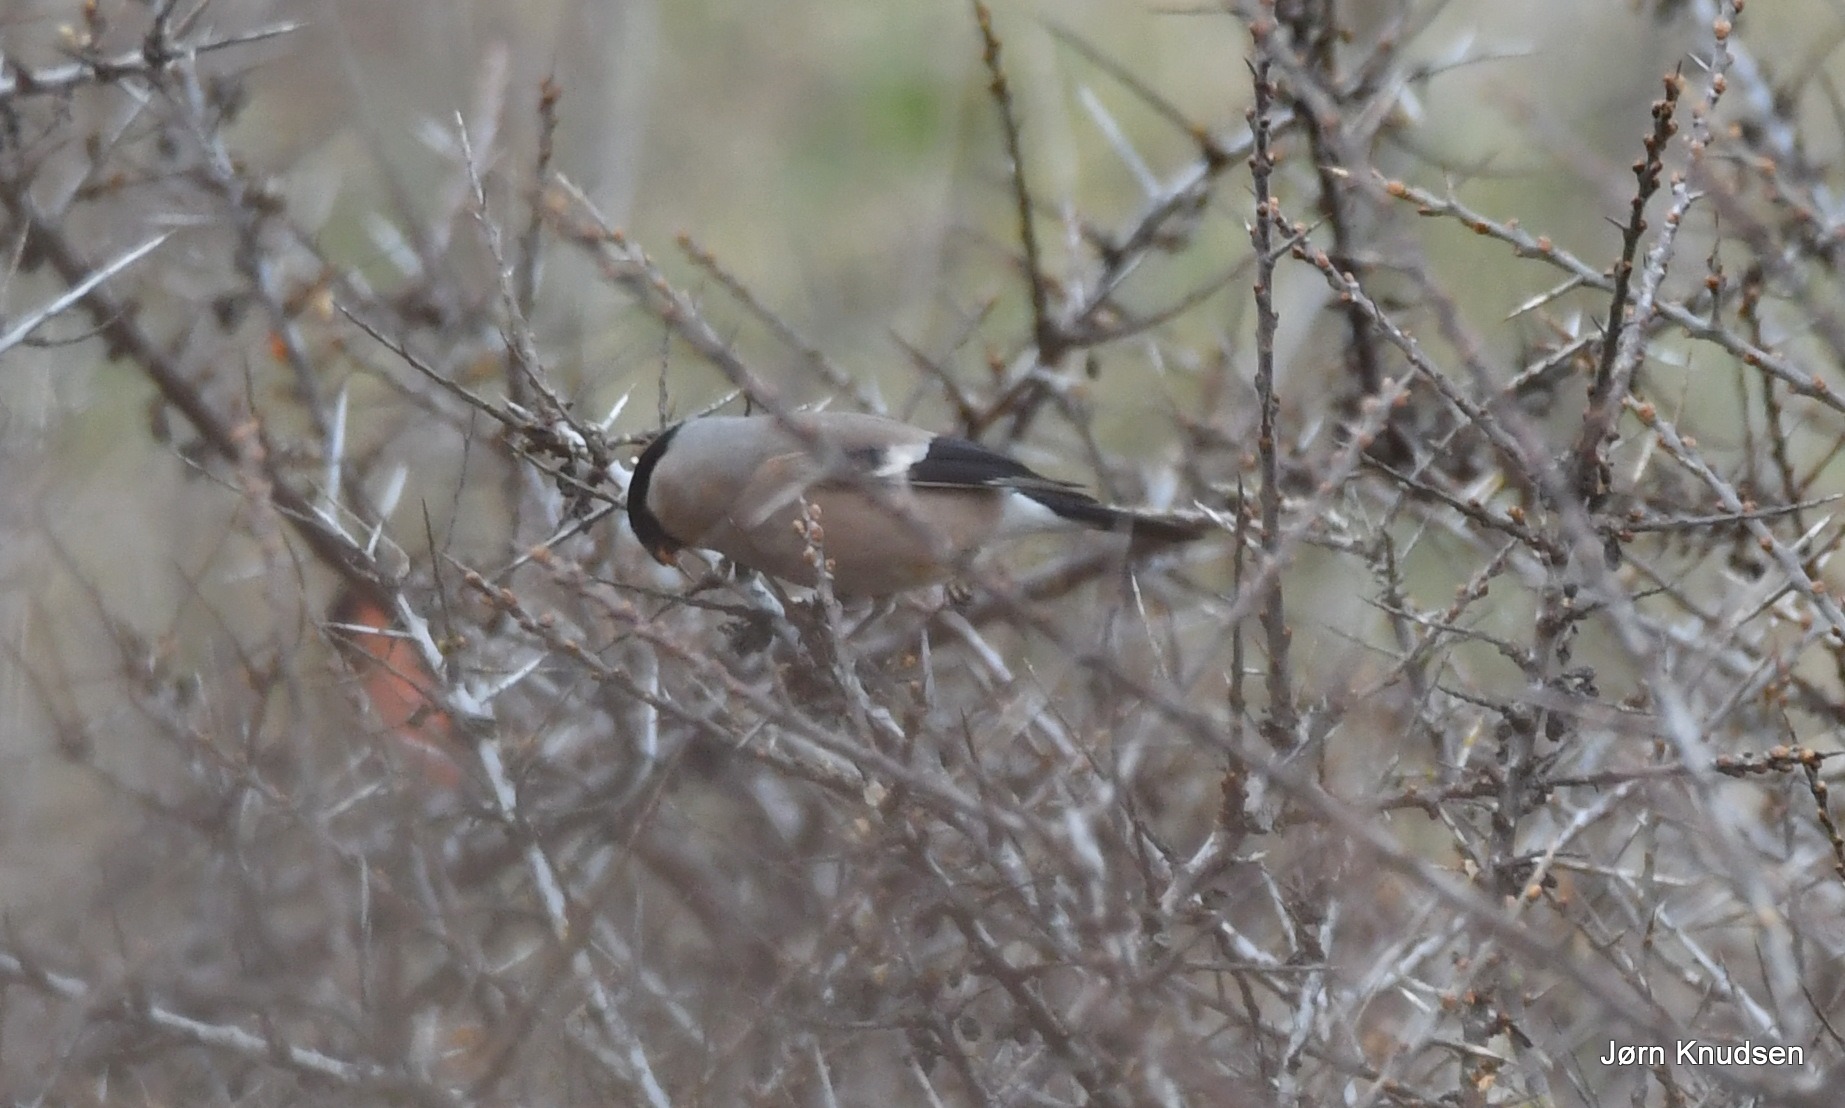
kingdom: Animalia
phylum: Chordata
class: Aves
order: Passeriformes
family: Fringillidae
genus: Pyrrhula
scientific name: Pyrrhula pyrrhula
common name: Dompap
